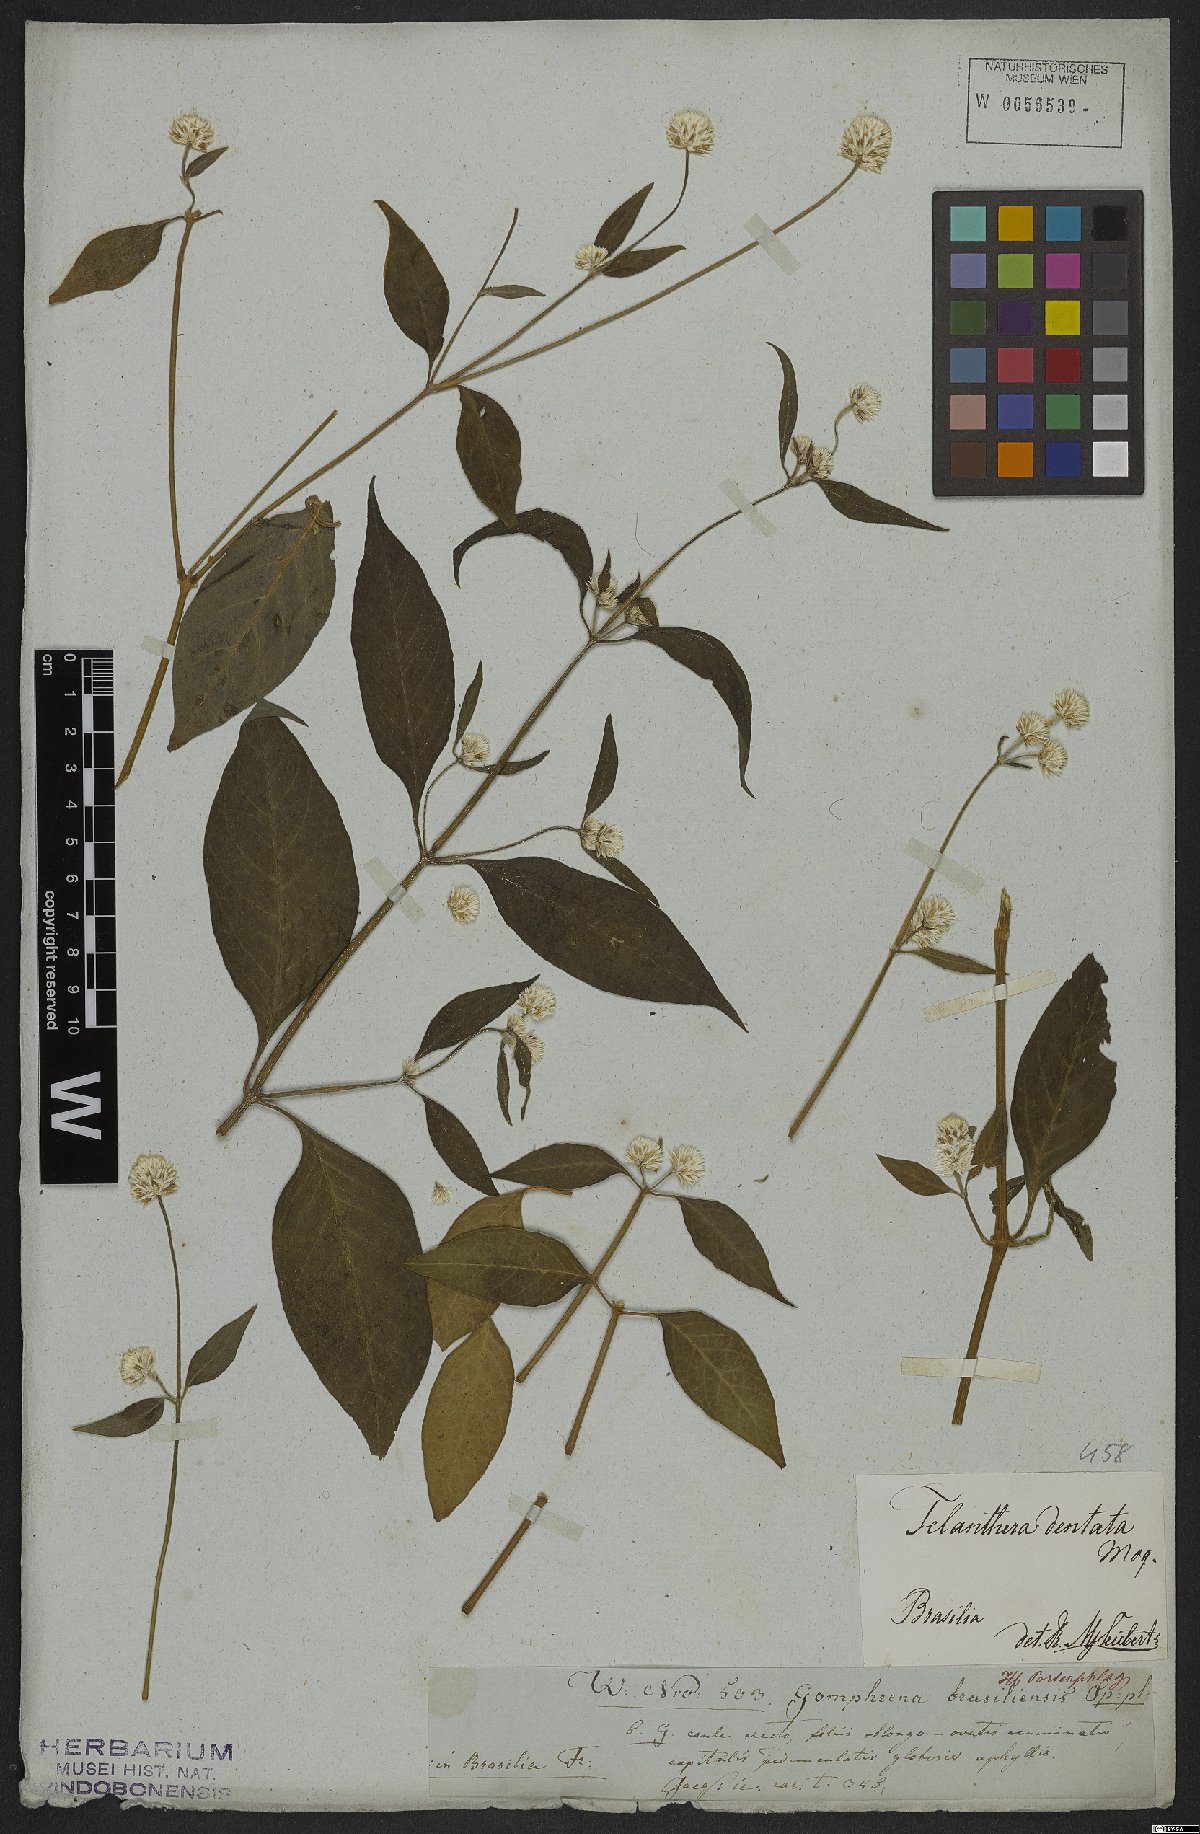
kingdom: Plantae
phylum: Tracheophyta
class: Magnoliopsida
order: Caryophyllales
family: Amaranthaceae
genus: Alternanthera
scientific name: Alternanthera ramosissima
